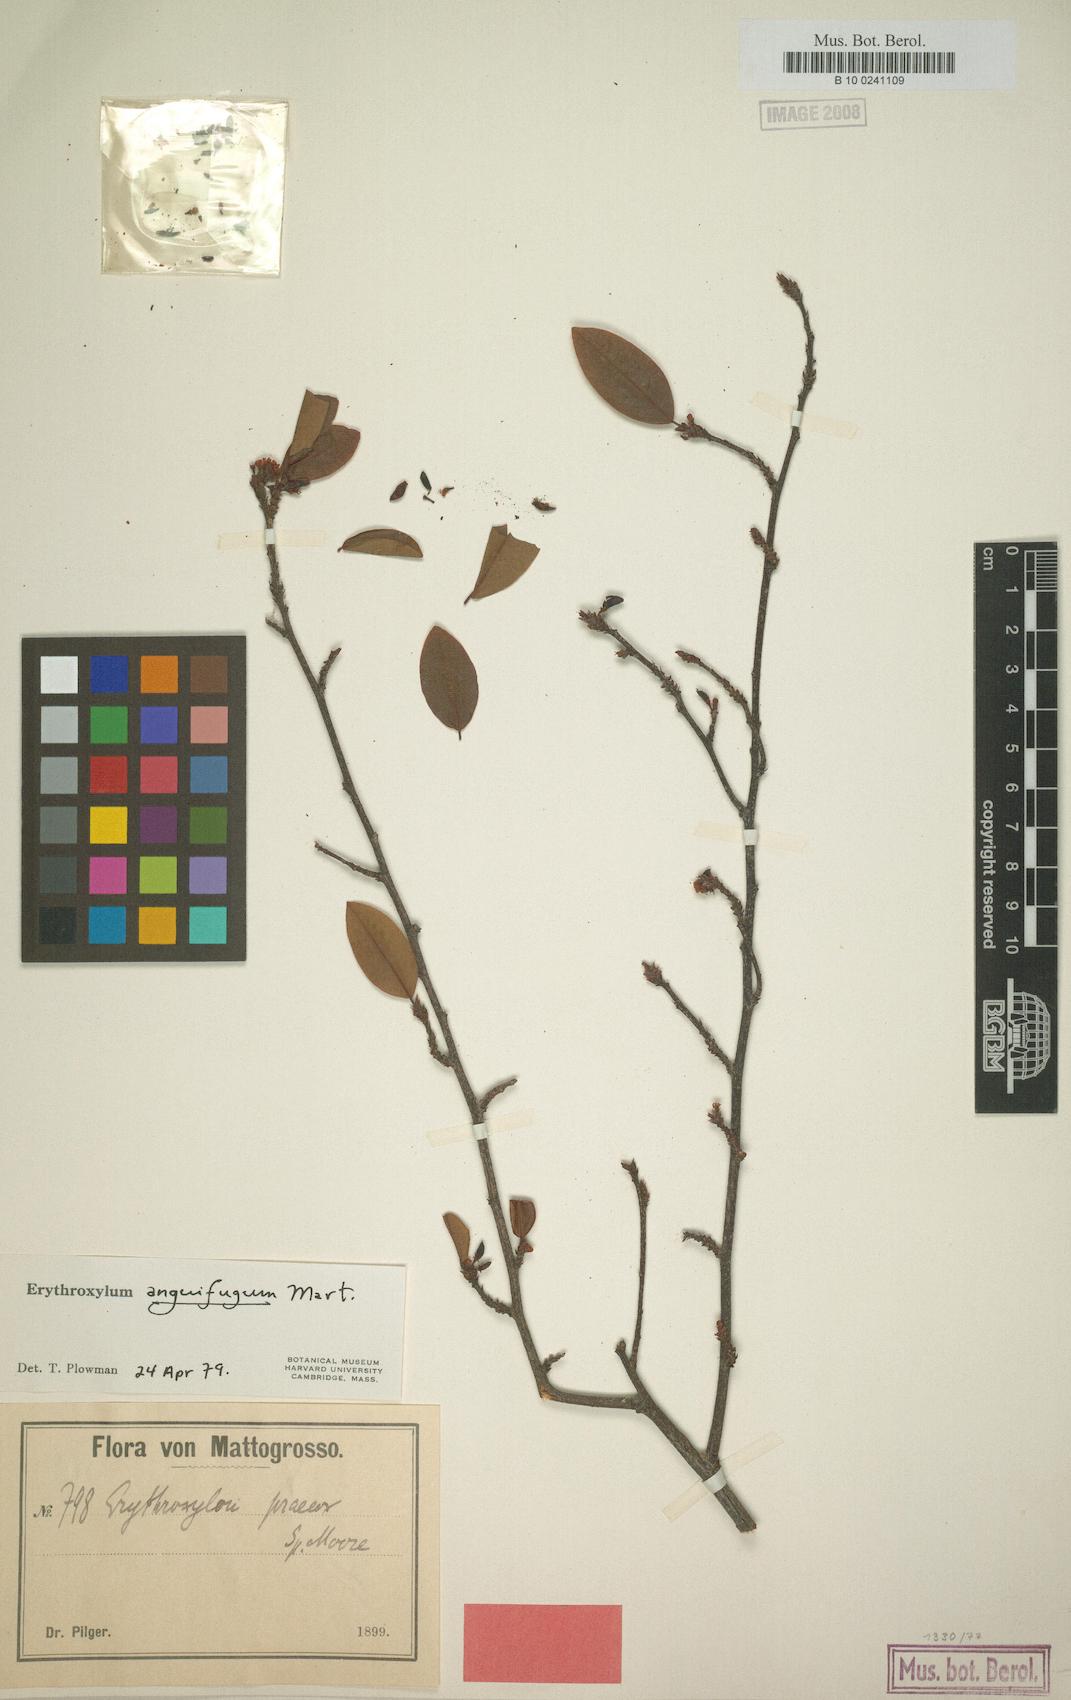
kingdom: Plantae
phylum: Tracheophyta
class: Magnoliopsida
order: Malpighiales
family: Erythroxylaceae
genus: Erythroxylum
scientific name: Erythroxylum anguifugum
